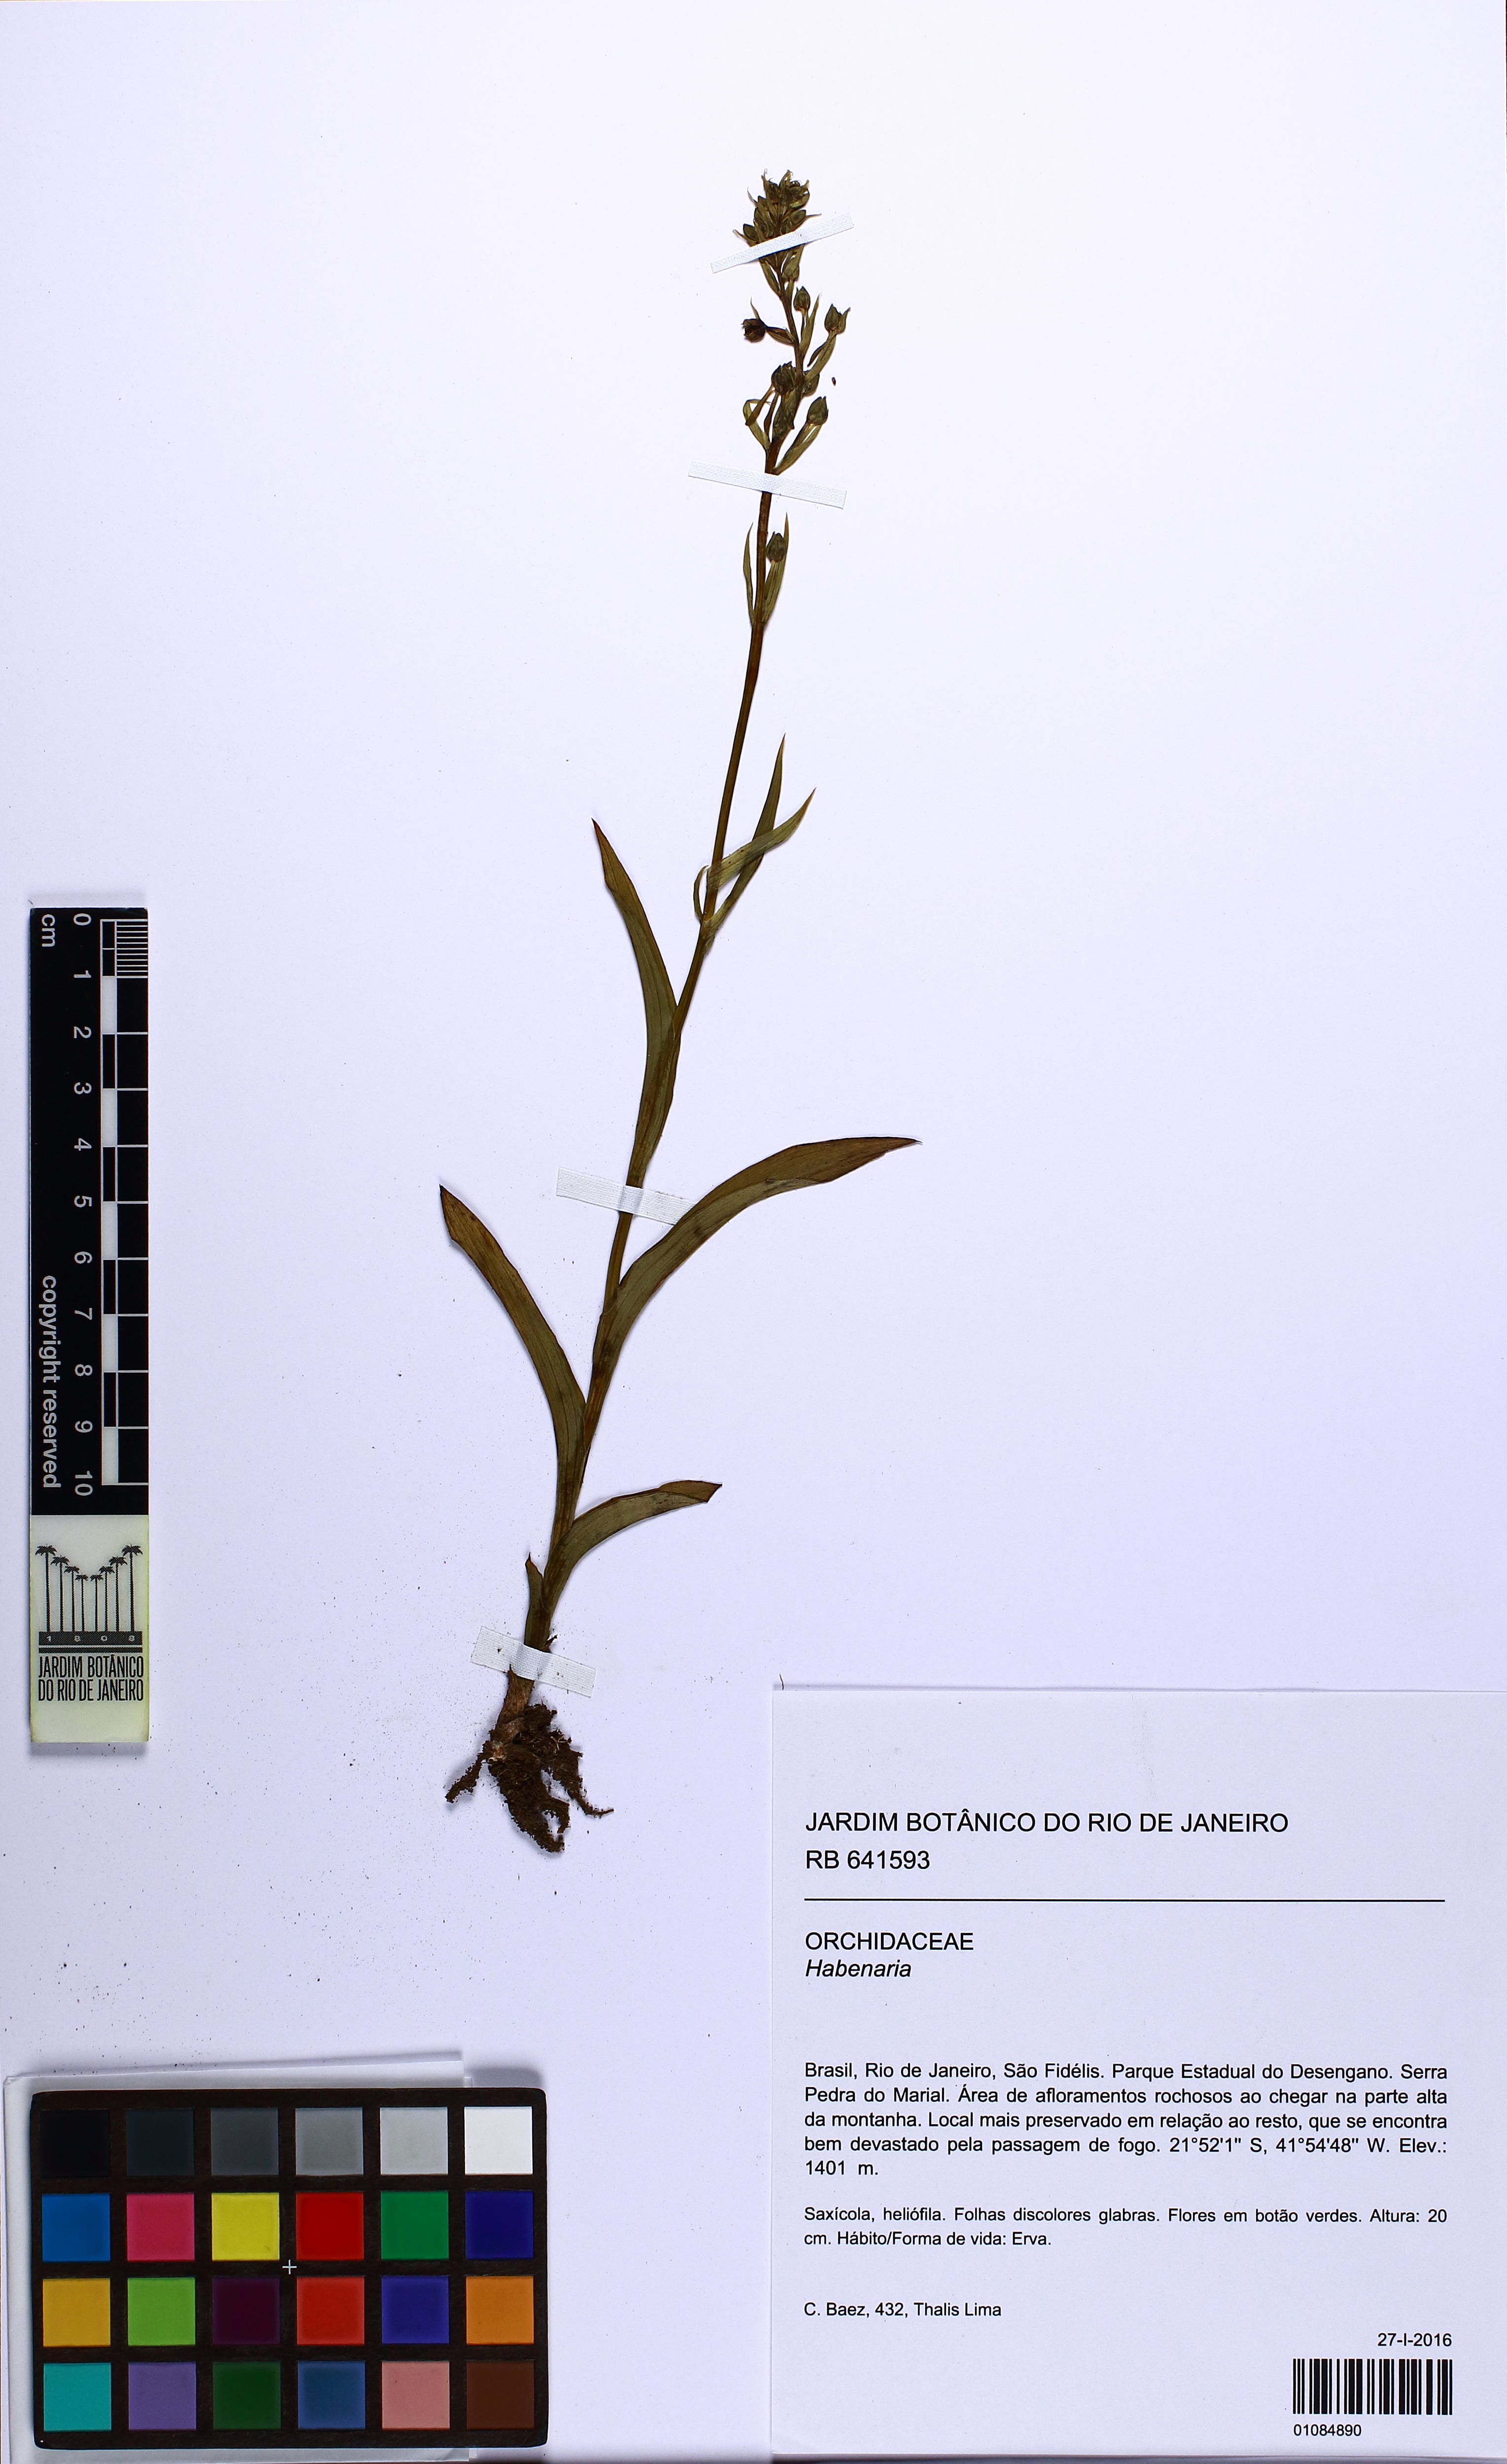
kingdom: Plantae
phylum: Tracheophyta
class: Liliopsida
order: Asparagales
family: Orchidaceae
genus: Habenaria
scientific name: Habenaria
